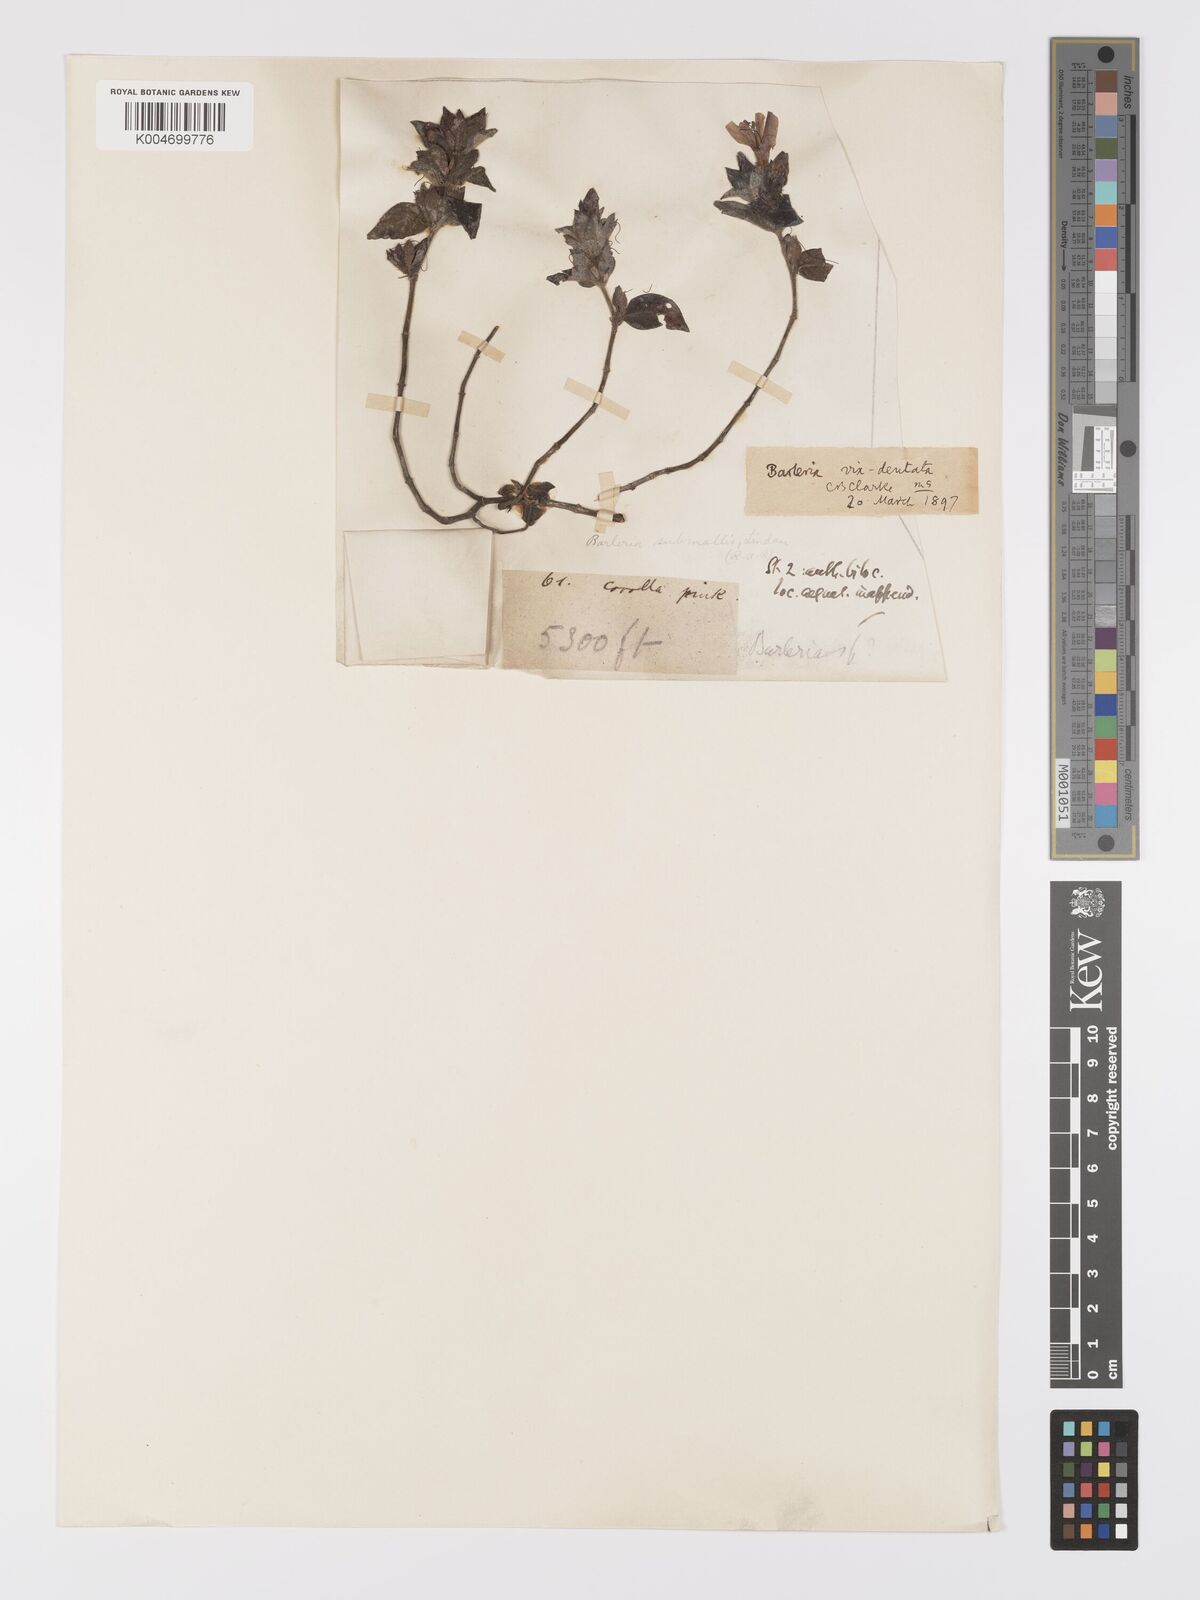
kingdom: Plantae
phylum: Tracheophyta
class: Magnoliopsida
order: Lamiales
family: Acanthaceae
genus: Barleria
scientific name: Barleria ventricosa
